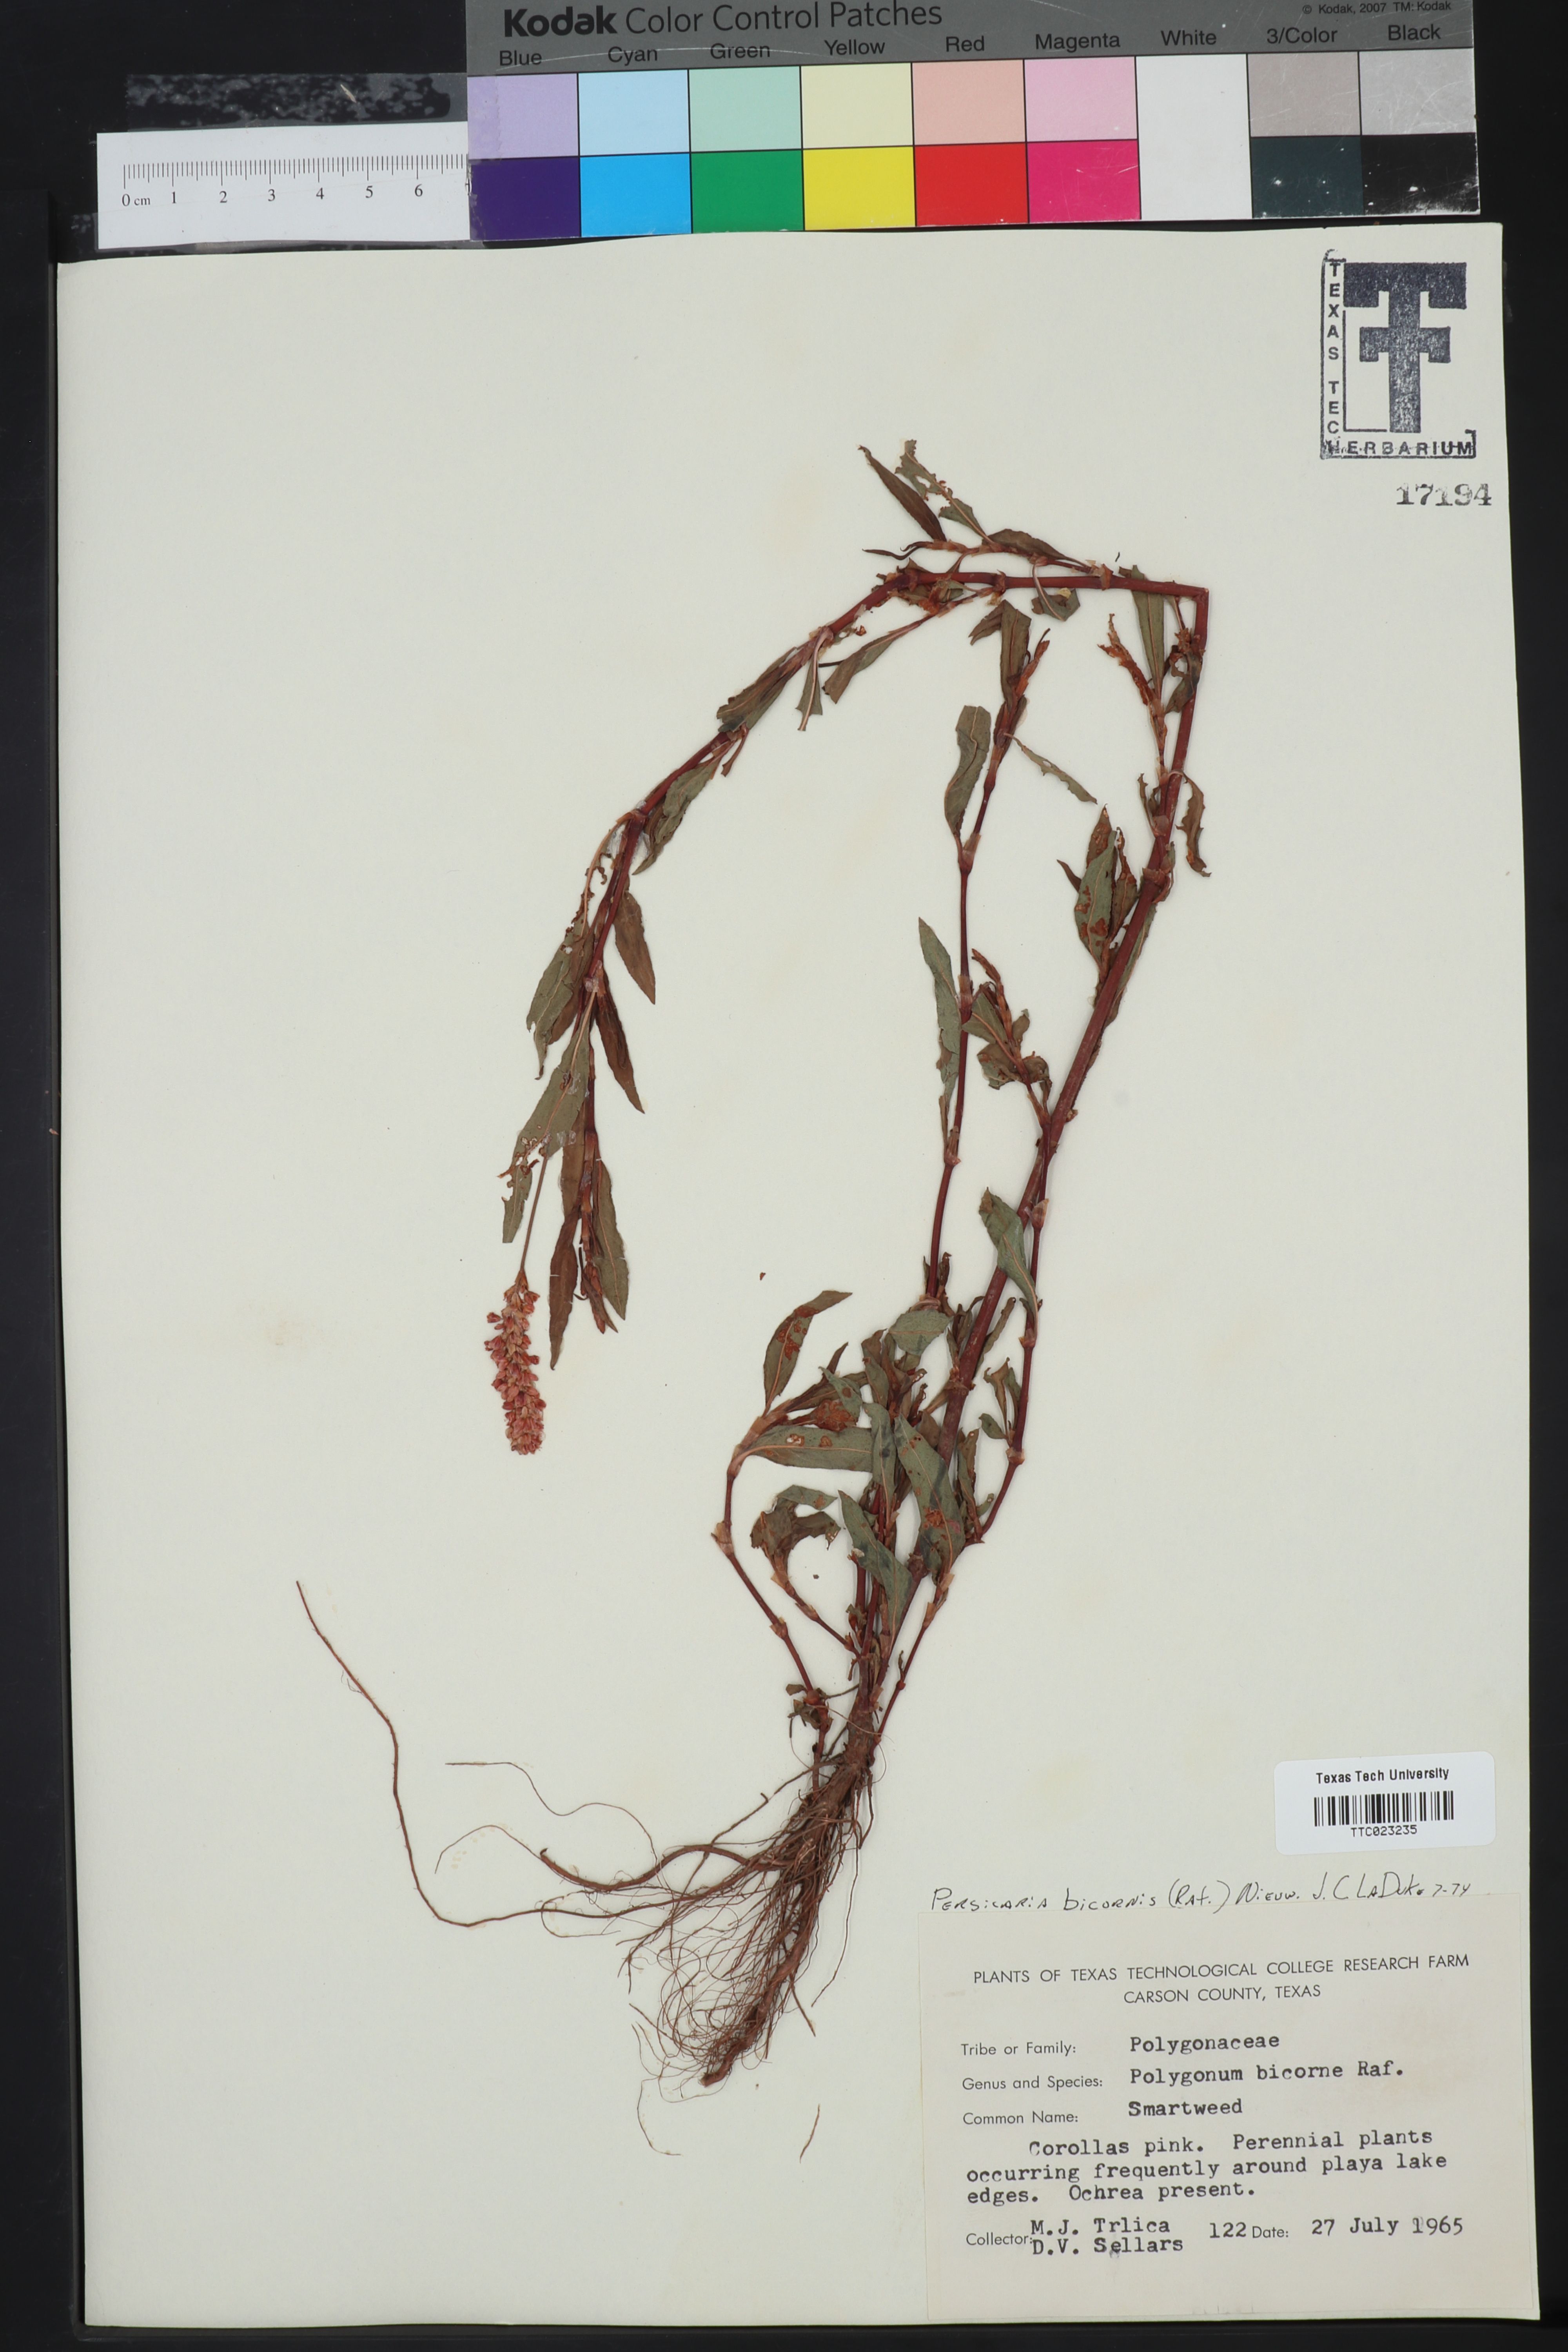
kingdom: Plantae
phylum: Tracheophyta
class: Magnoliopsida
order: Caryophyllales
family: Polygonaceae
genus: Persicaria
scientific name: Persicaria bicornis
